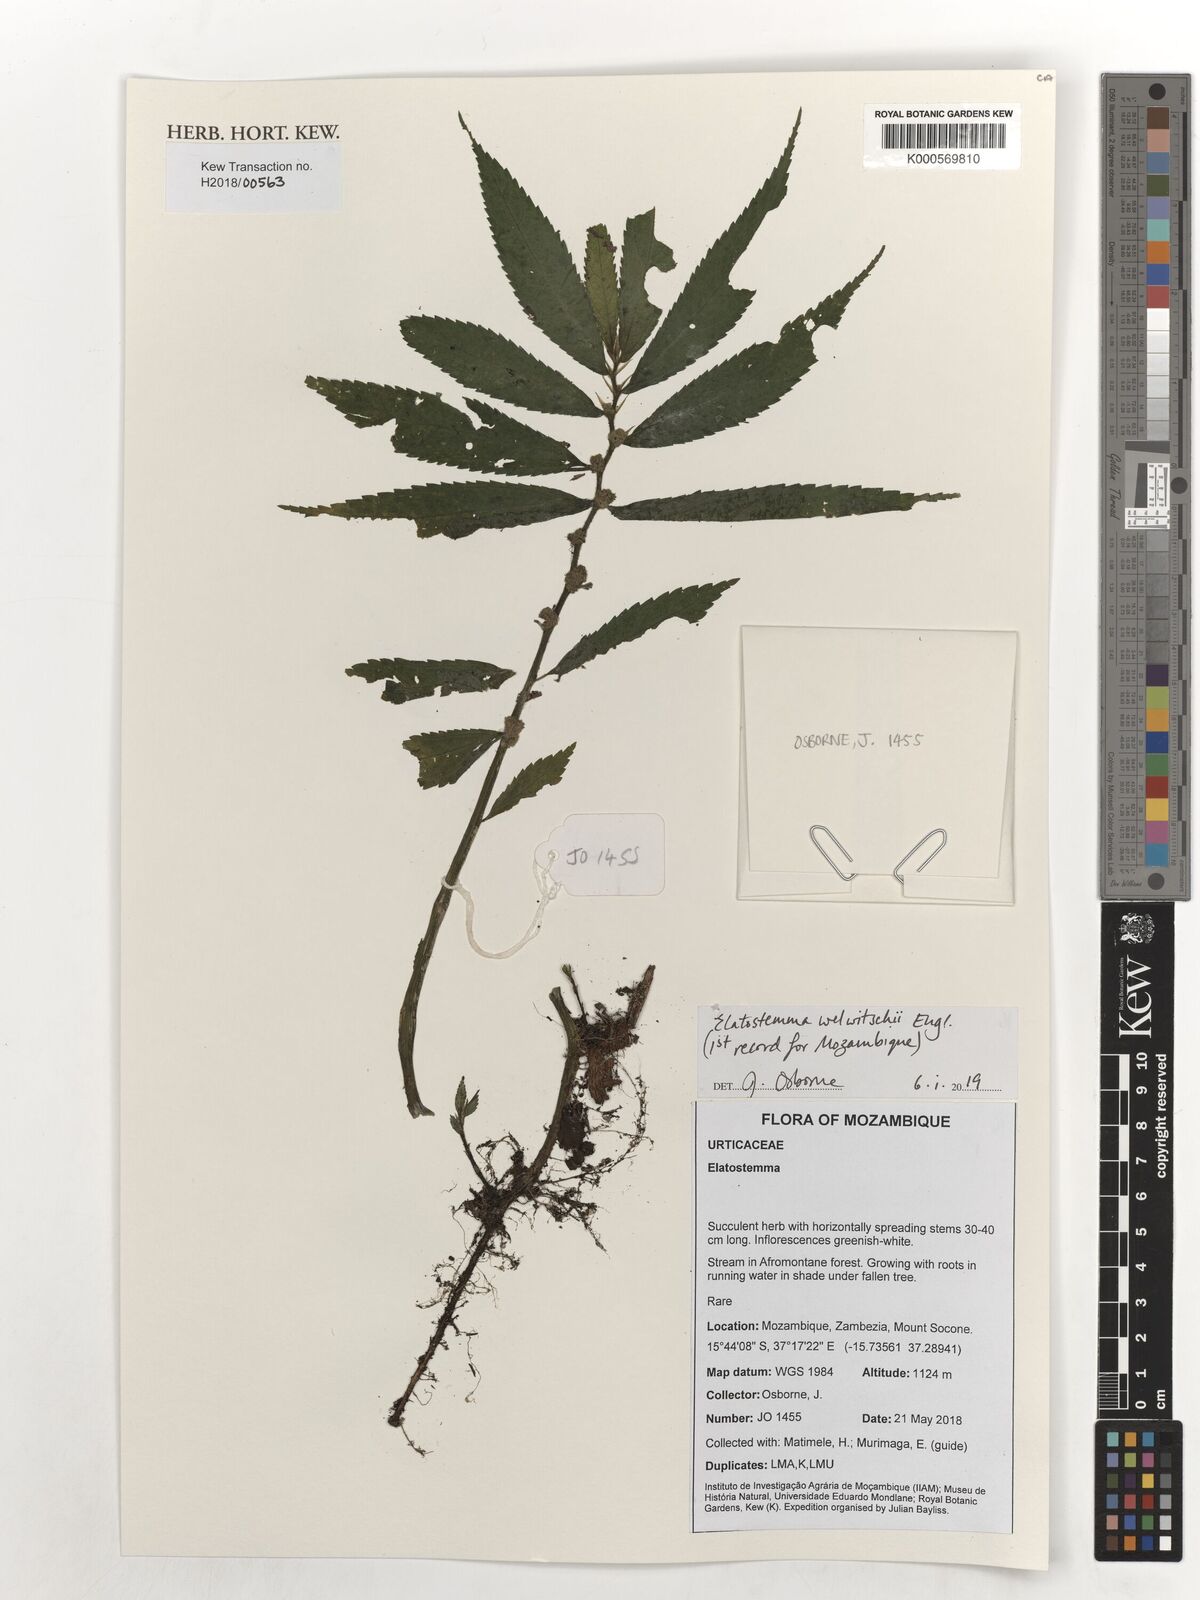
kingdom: Plantae
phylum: Tracheophyta
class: Magnoliopsida
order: Rosales
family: Urticaceae
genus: Elatostema
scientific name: Elatostema welwitschii
